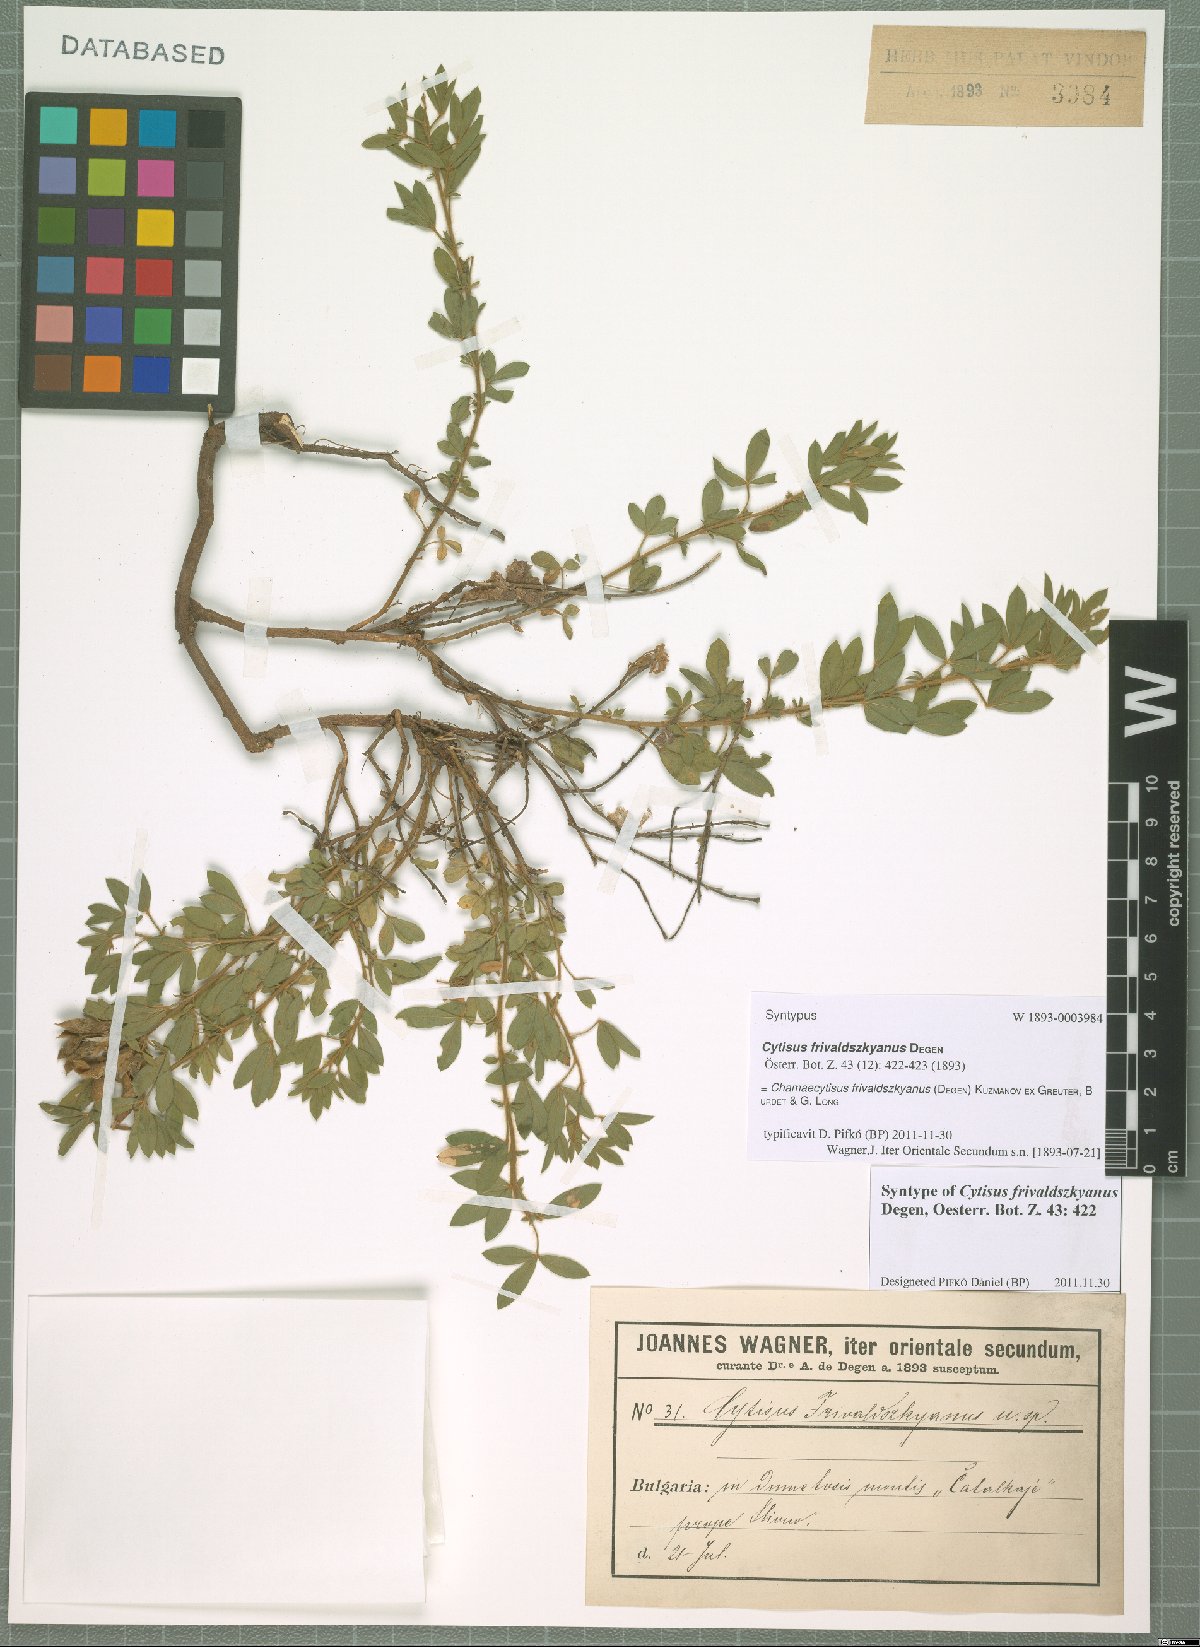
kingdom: Plantae
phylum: Tracheophyta
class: Magnoliopsida
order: Fabales
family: Fabaceae
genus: Chamaecytisus
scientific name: Chamaecytisus frivaldszkyanus
